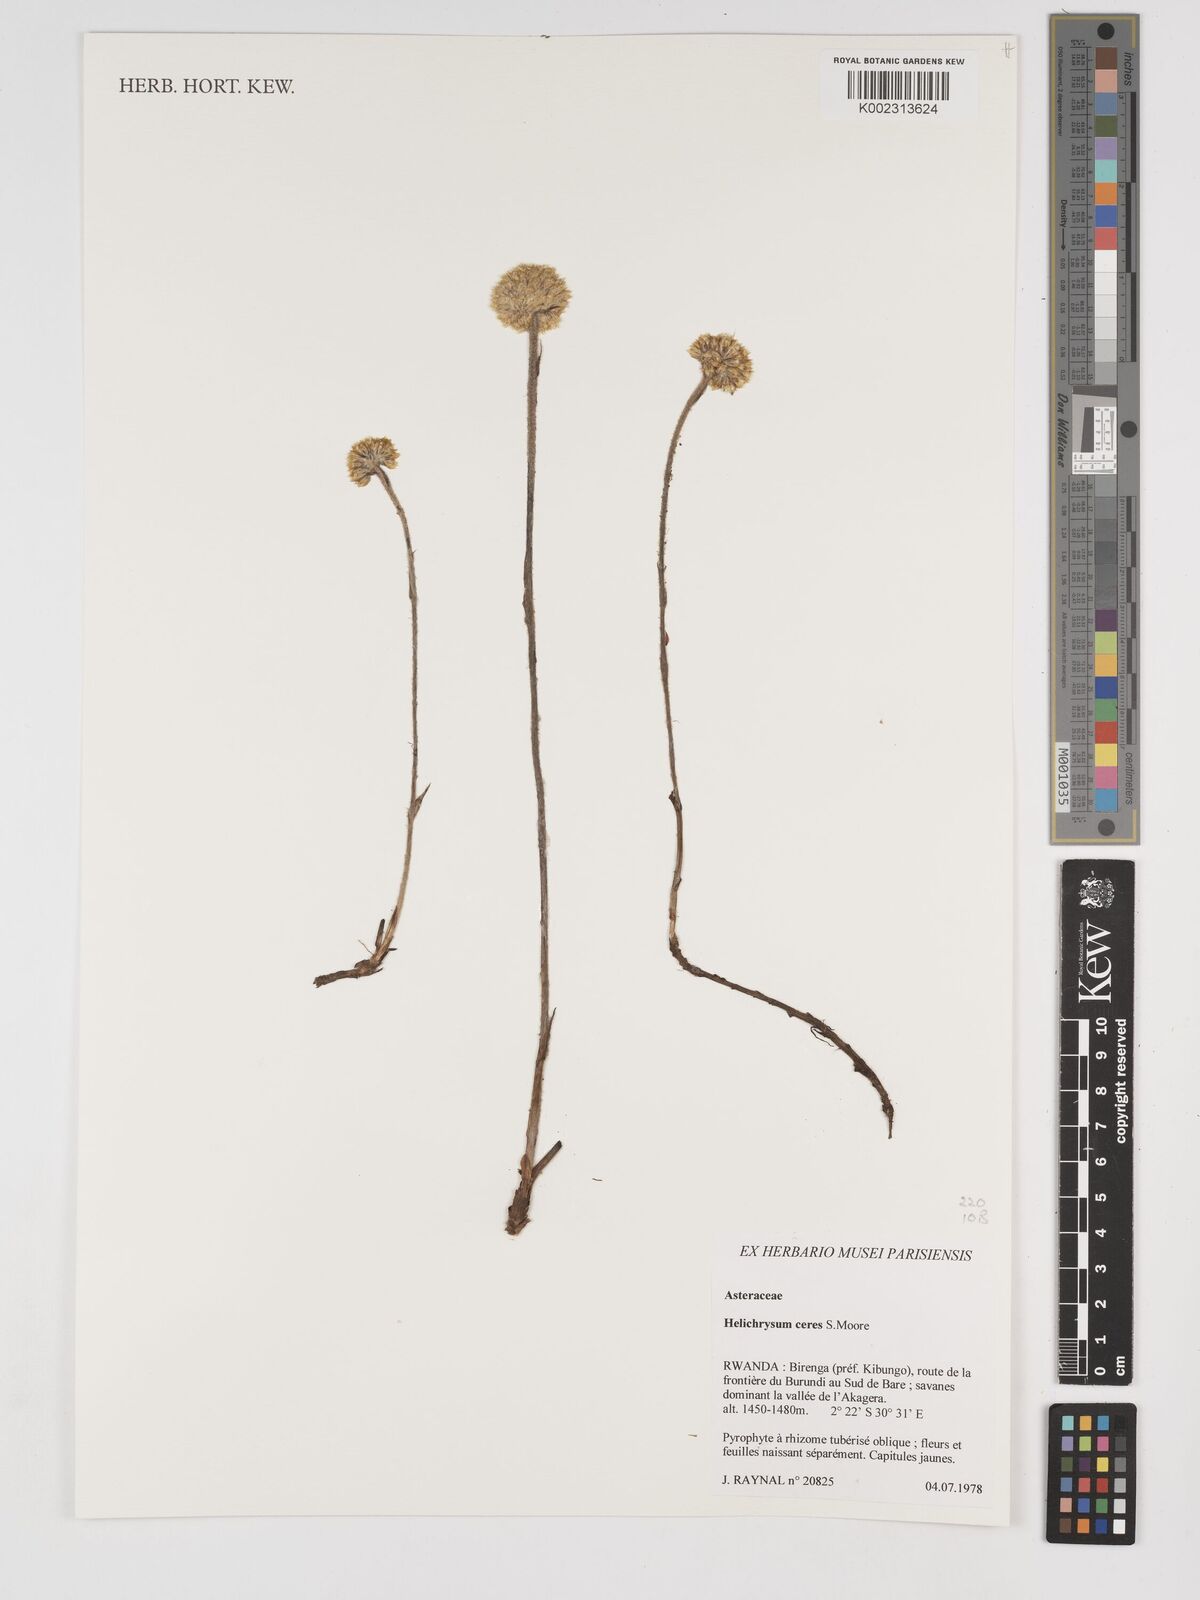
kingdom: Plantae
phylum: Tracheophyta
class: Magnoliopsida
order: Asterales
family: Asteraceae
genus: Helichrysum
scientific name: Helichrysum mechowianum
